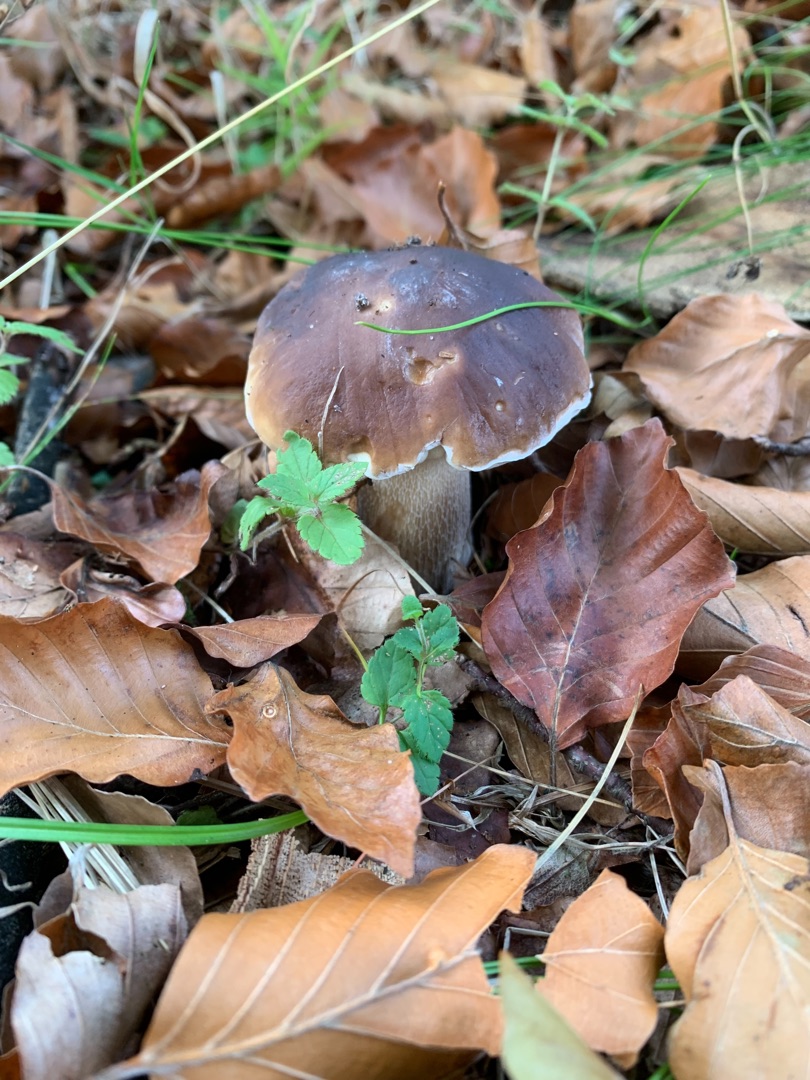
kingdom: Fungi
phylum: Basidiomycota
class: Agaricomycetes
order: Boletales
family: Boletaceae
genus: Boletus
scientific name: Boletus edulis
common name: Spiselig rørhat/karl johan
